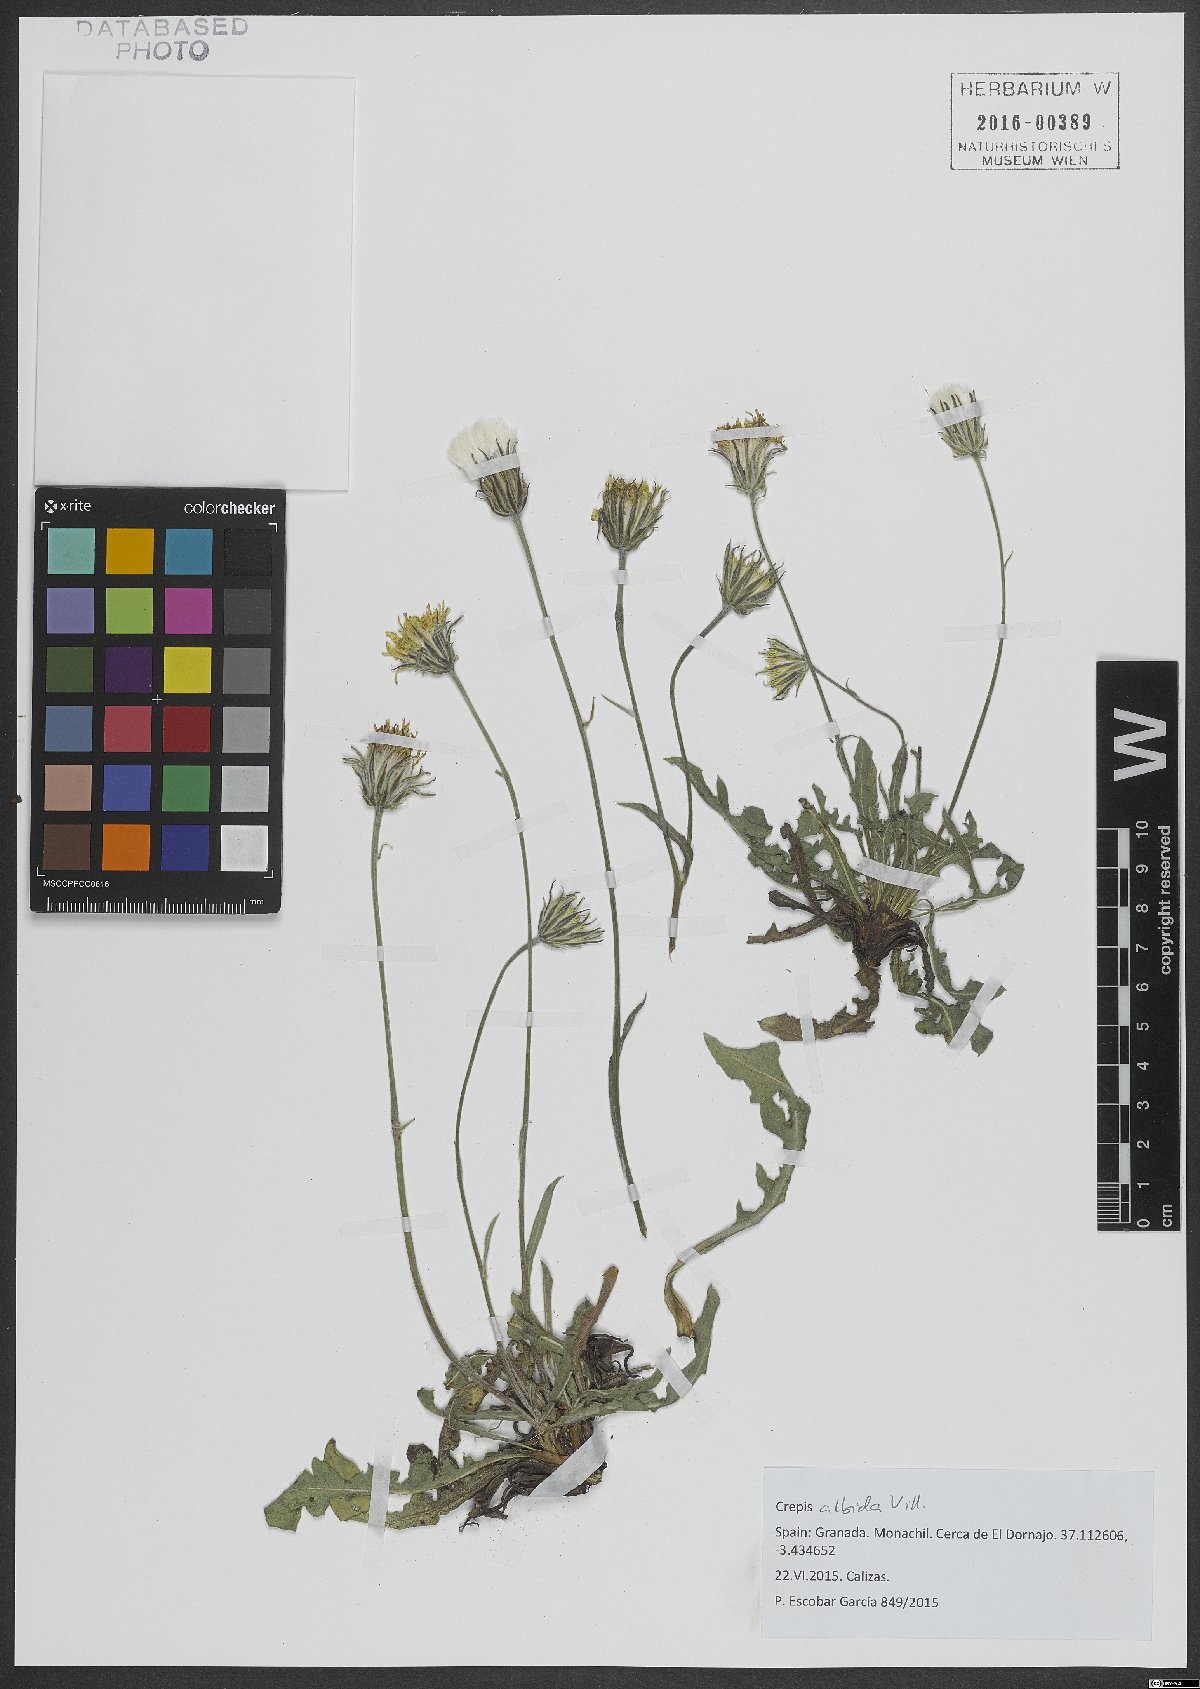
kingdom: Plantae
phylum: Tracheophyta
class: Magnoliopsida
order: Asterales
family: Asteraceae
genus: Crepis
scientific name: Crepis albida
